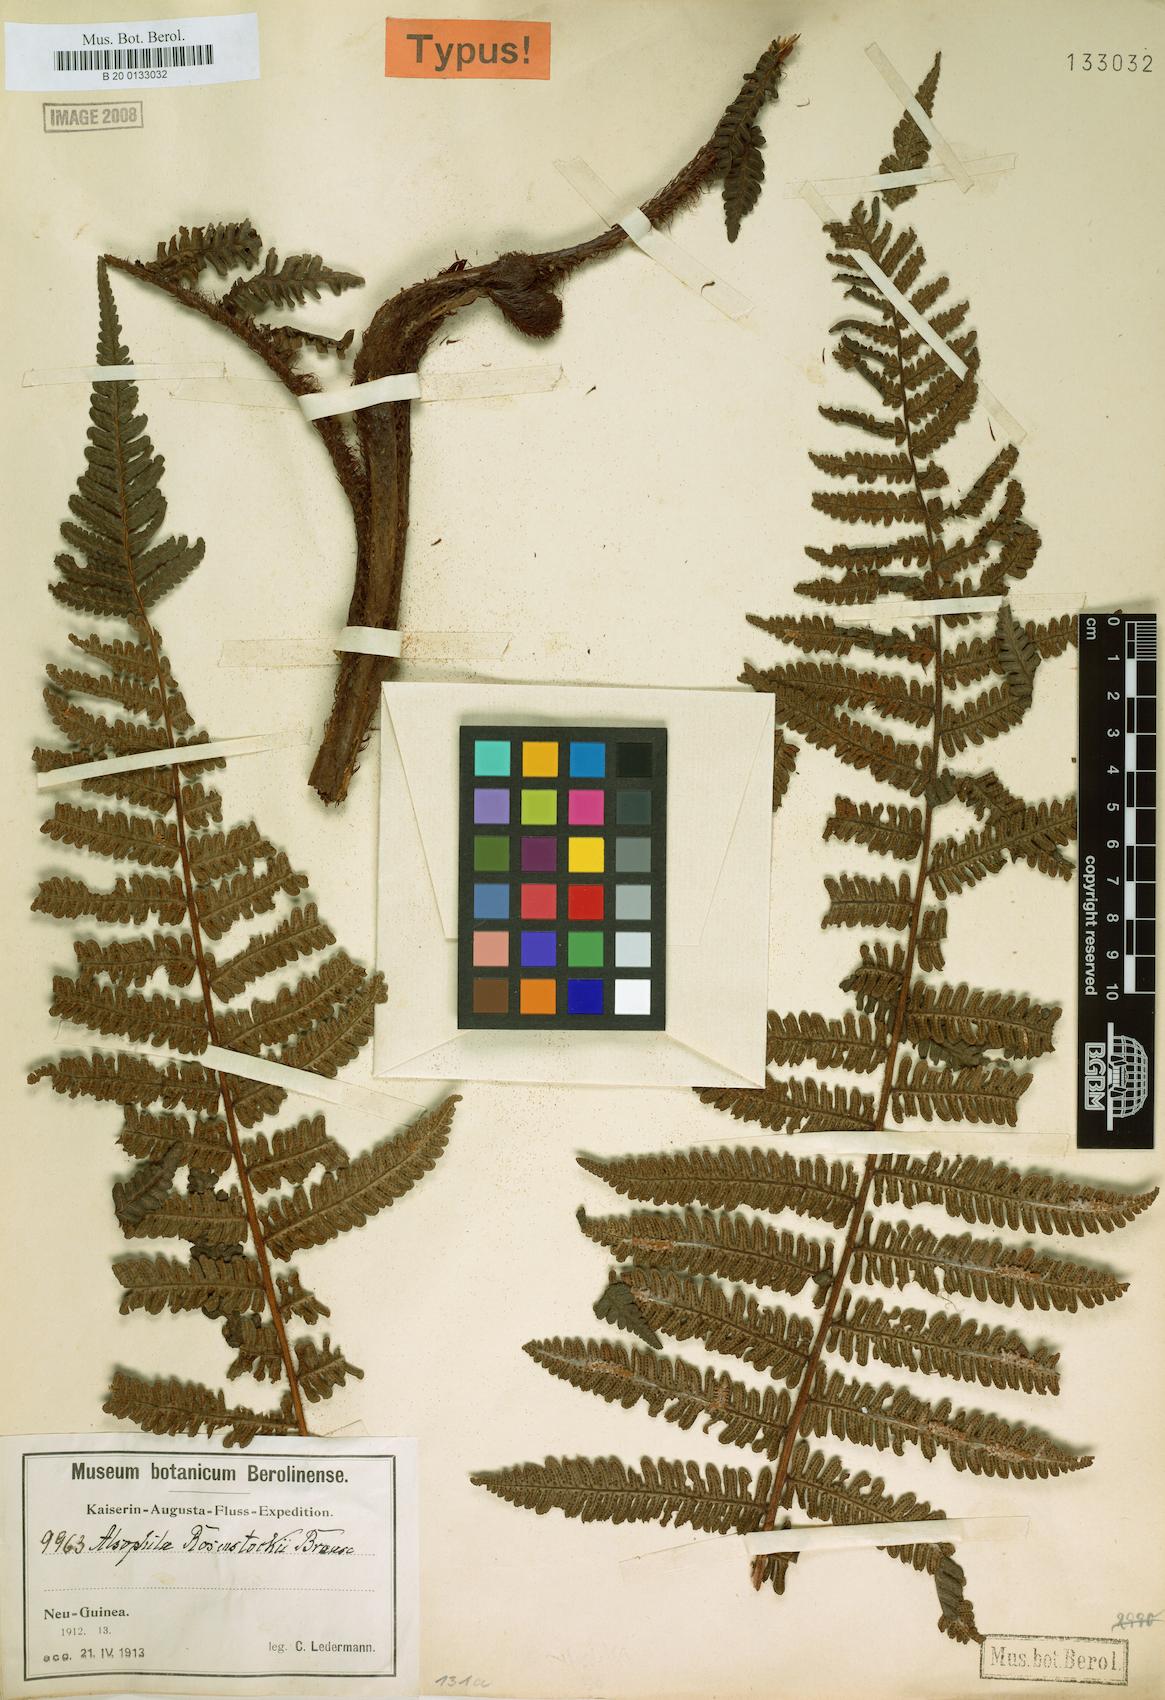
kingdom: Plantae
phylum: Tracheophyta
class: Polypodiopsida
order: Cyatheales
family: Cyatheaceae
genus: Alsophila
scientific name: Alsophila rosenstockii
